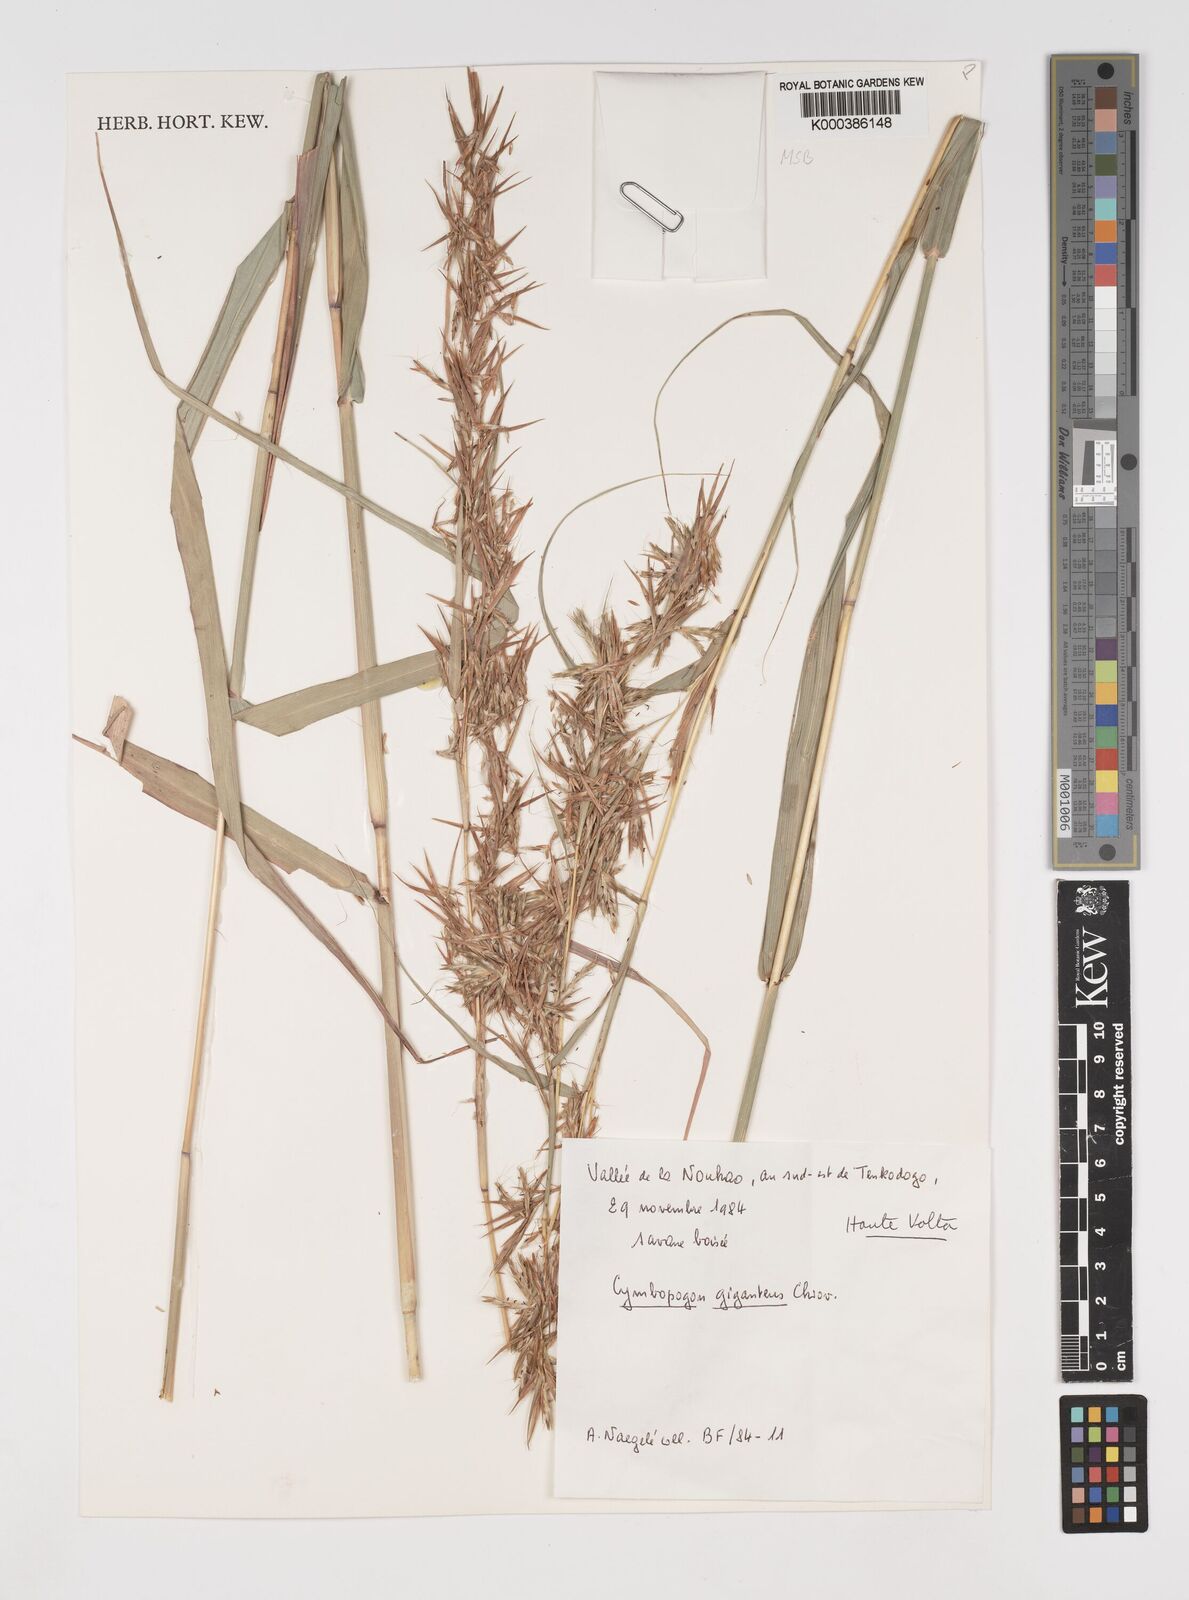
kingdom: Plantae
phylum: Tracheophyta
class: Liliopsida
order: Poales
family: Poaceae
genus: Cymbopogon
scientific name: Cymbopogon giganteus
